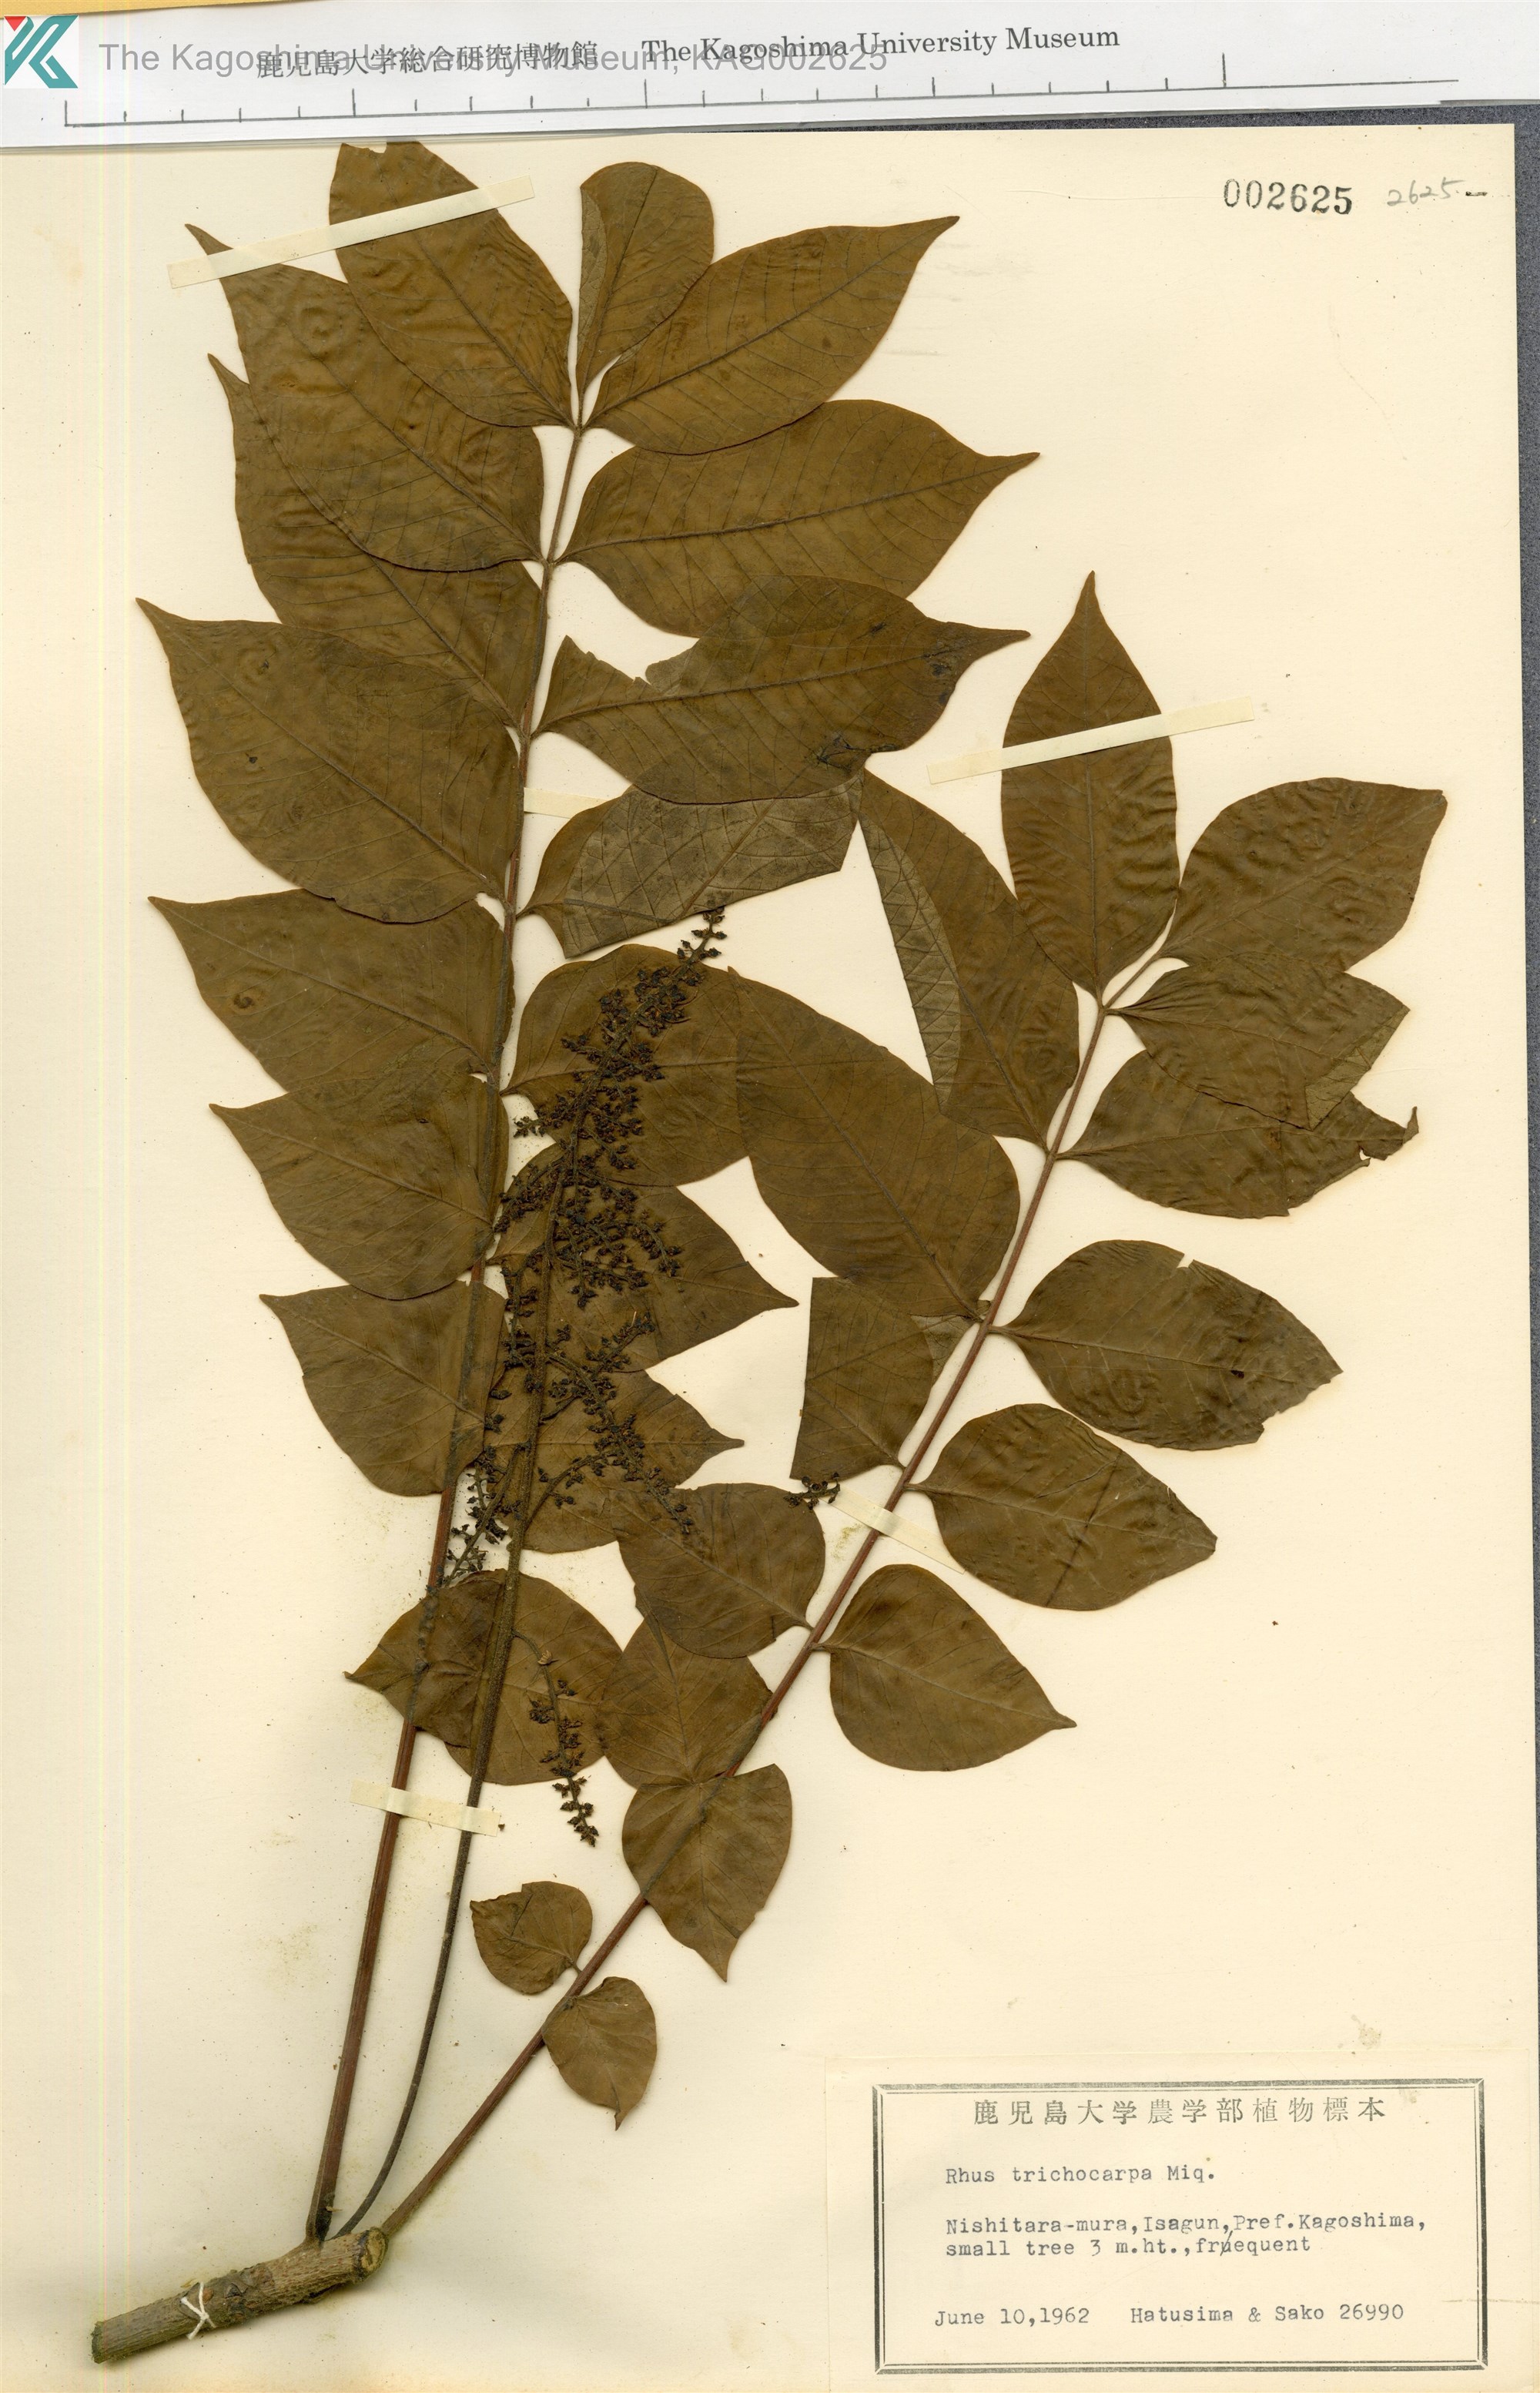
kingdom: Plantae
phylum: Tracheophyta
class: Magnoliopsida
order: Sapindales
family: Anacardiaceae
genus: Toxicodendron
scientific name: Toxicodendron trichocarpum
